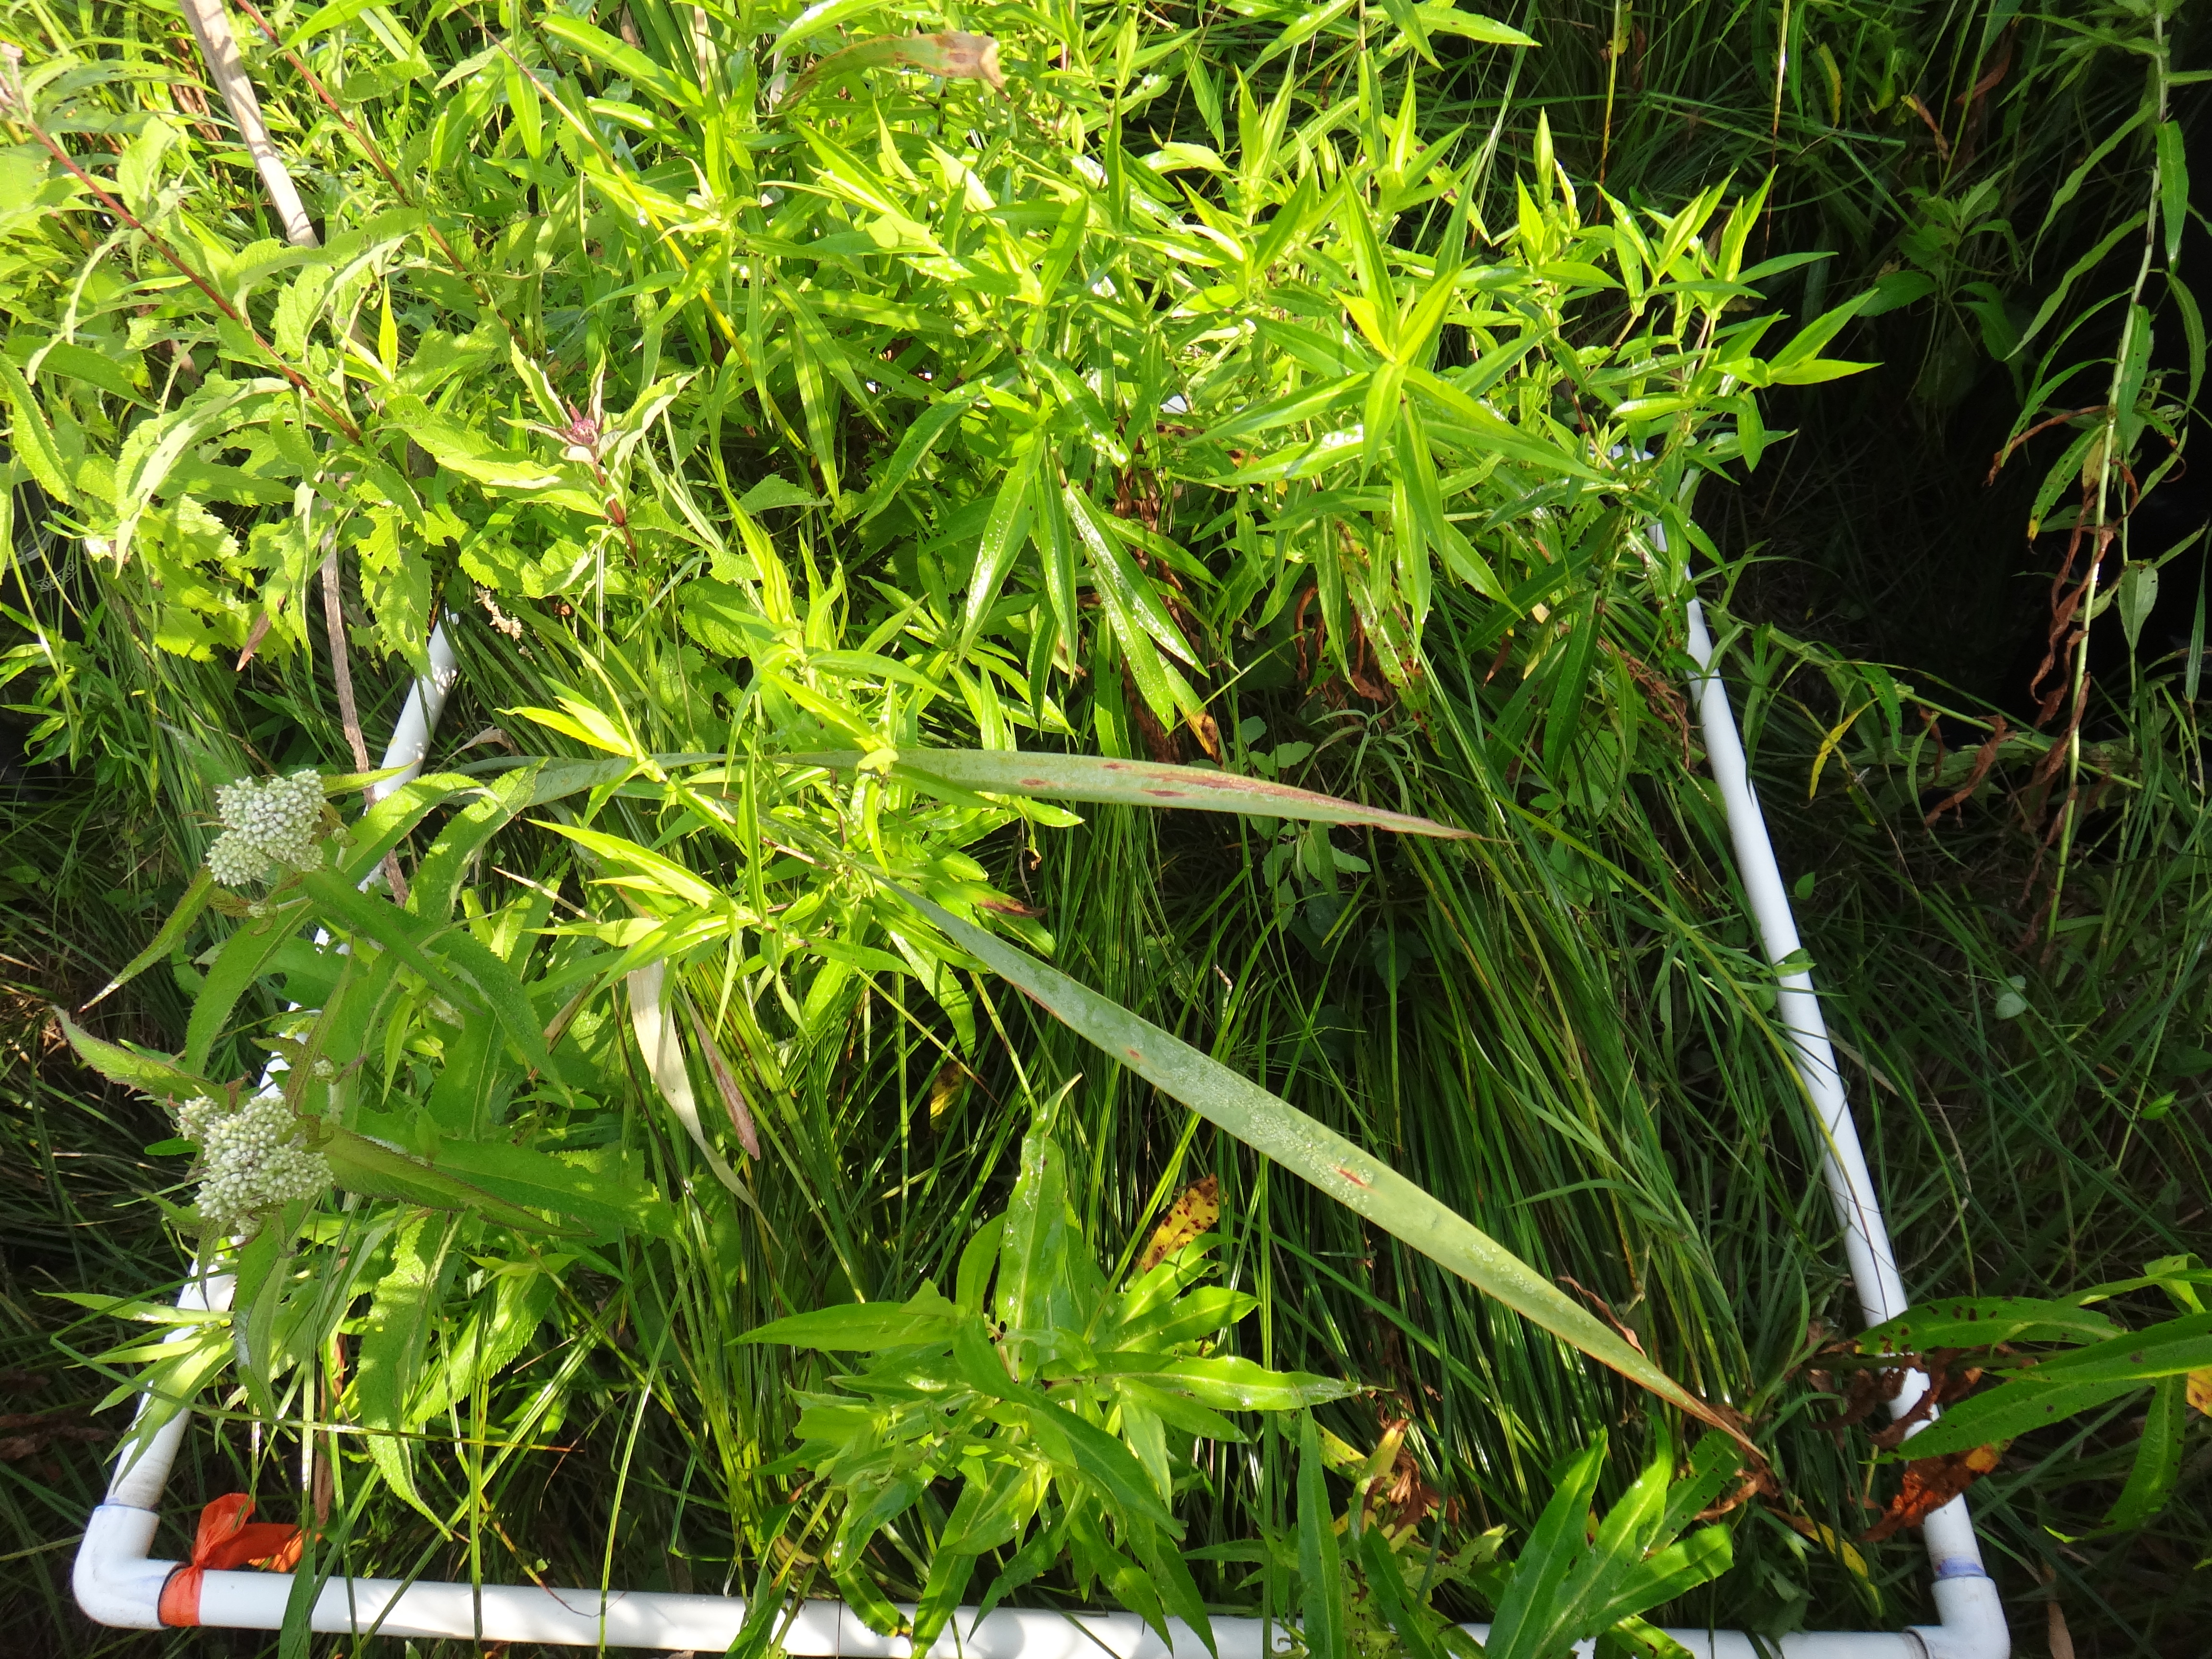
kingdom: Plantae
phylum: Tracheophyta
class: Magnoliopsida
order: Fabales
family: Fabaceae
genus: Apios
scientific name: Apios americana
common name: American potato-bean
